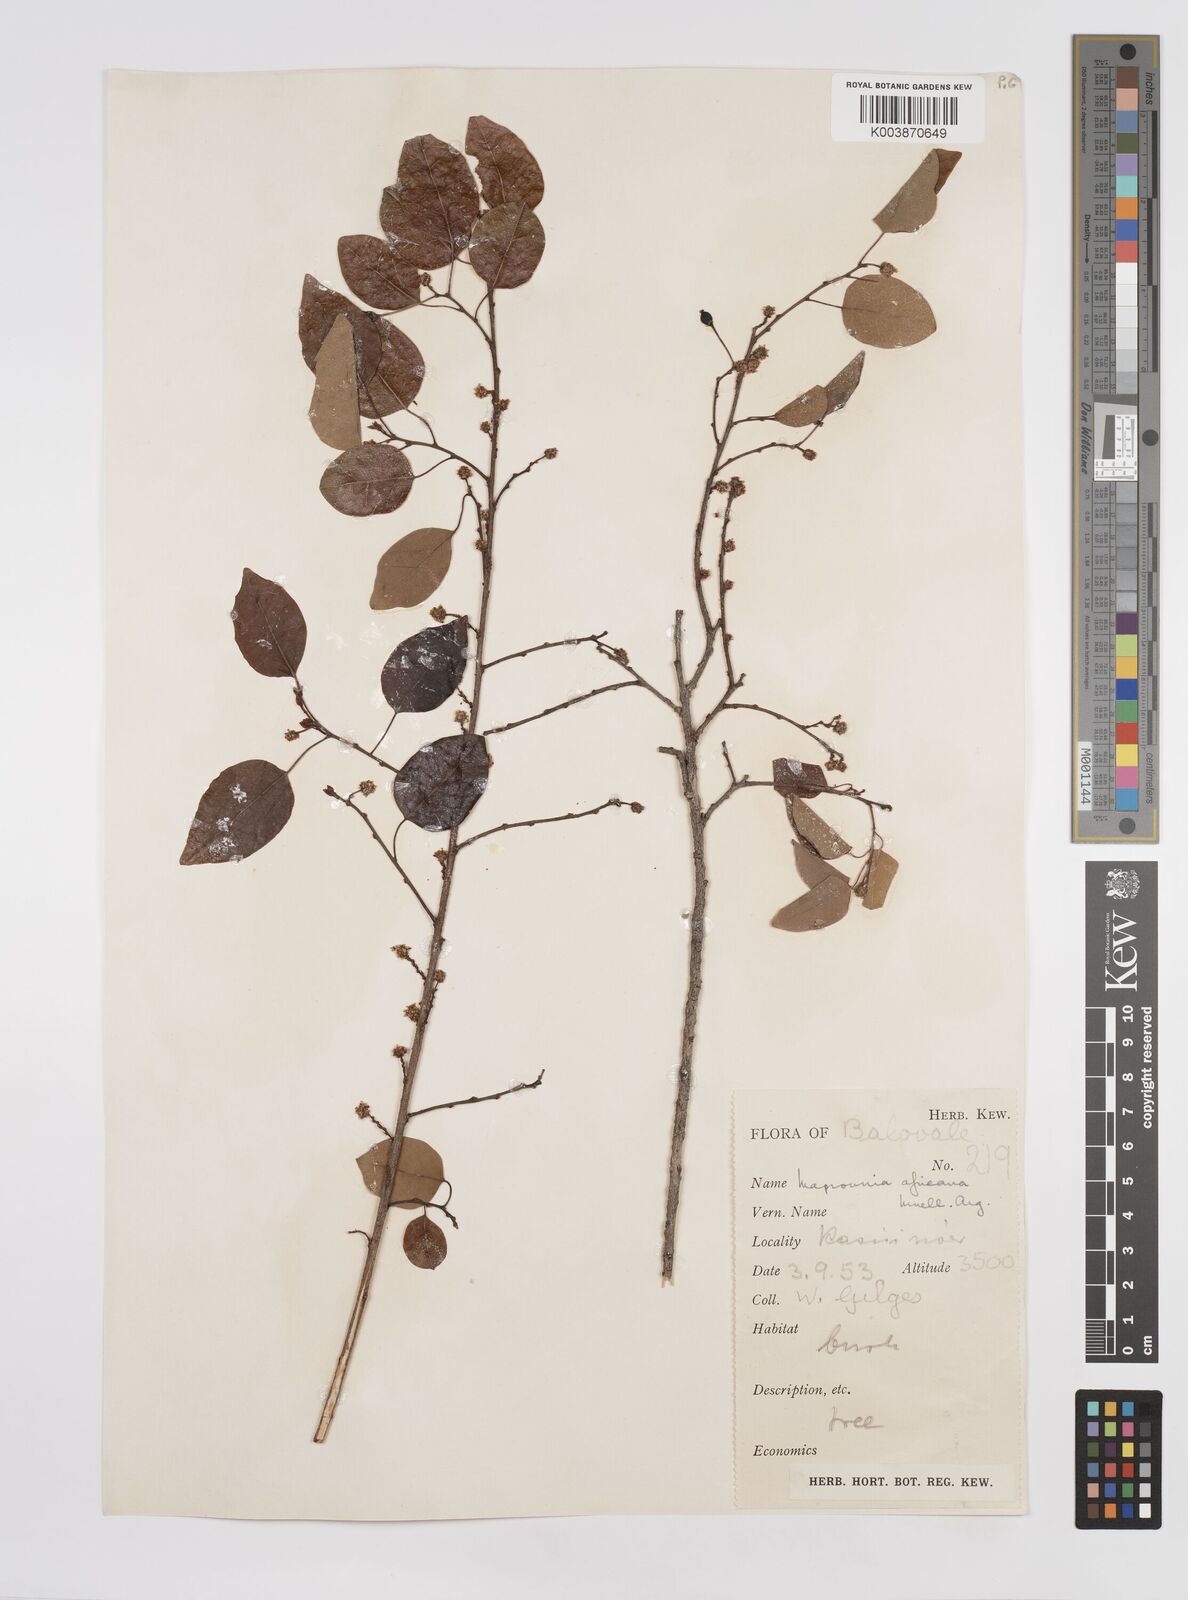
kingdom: Plantae
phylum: Tracheophyta
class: Magnoliopsida
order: Malpighiales
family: Euphorbiaceae
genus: Maprounea
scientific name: Maprounea africana
